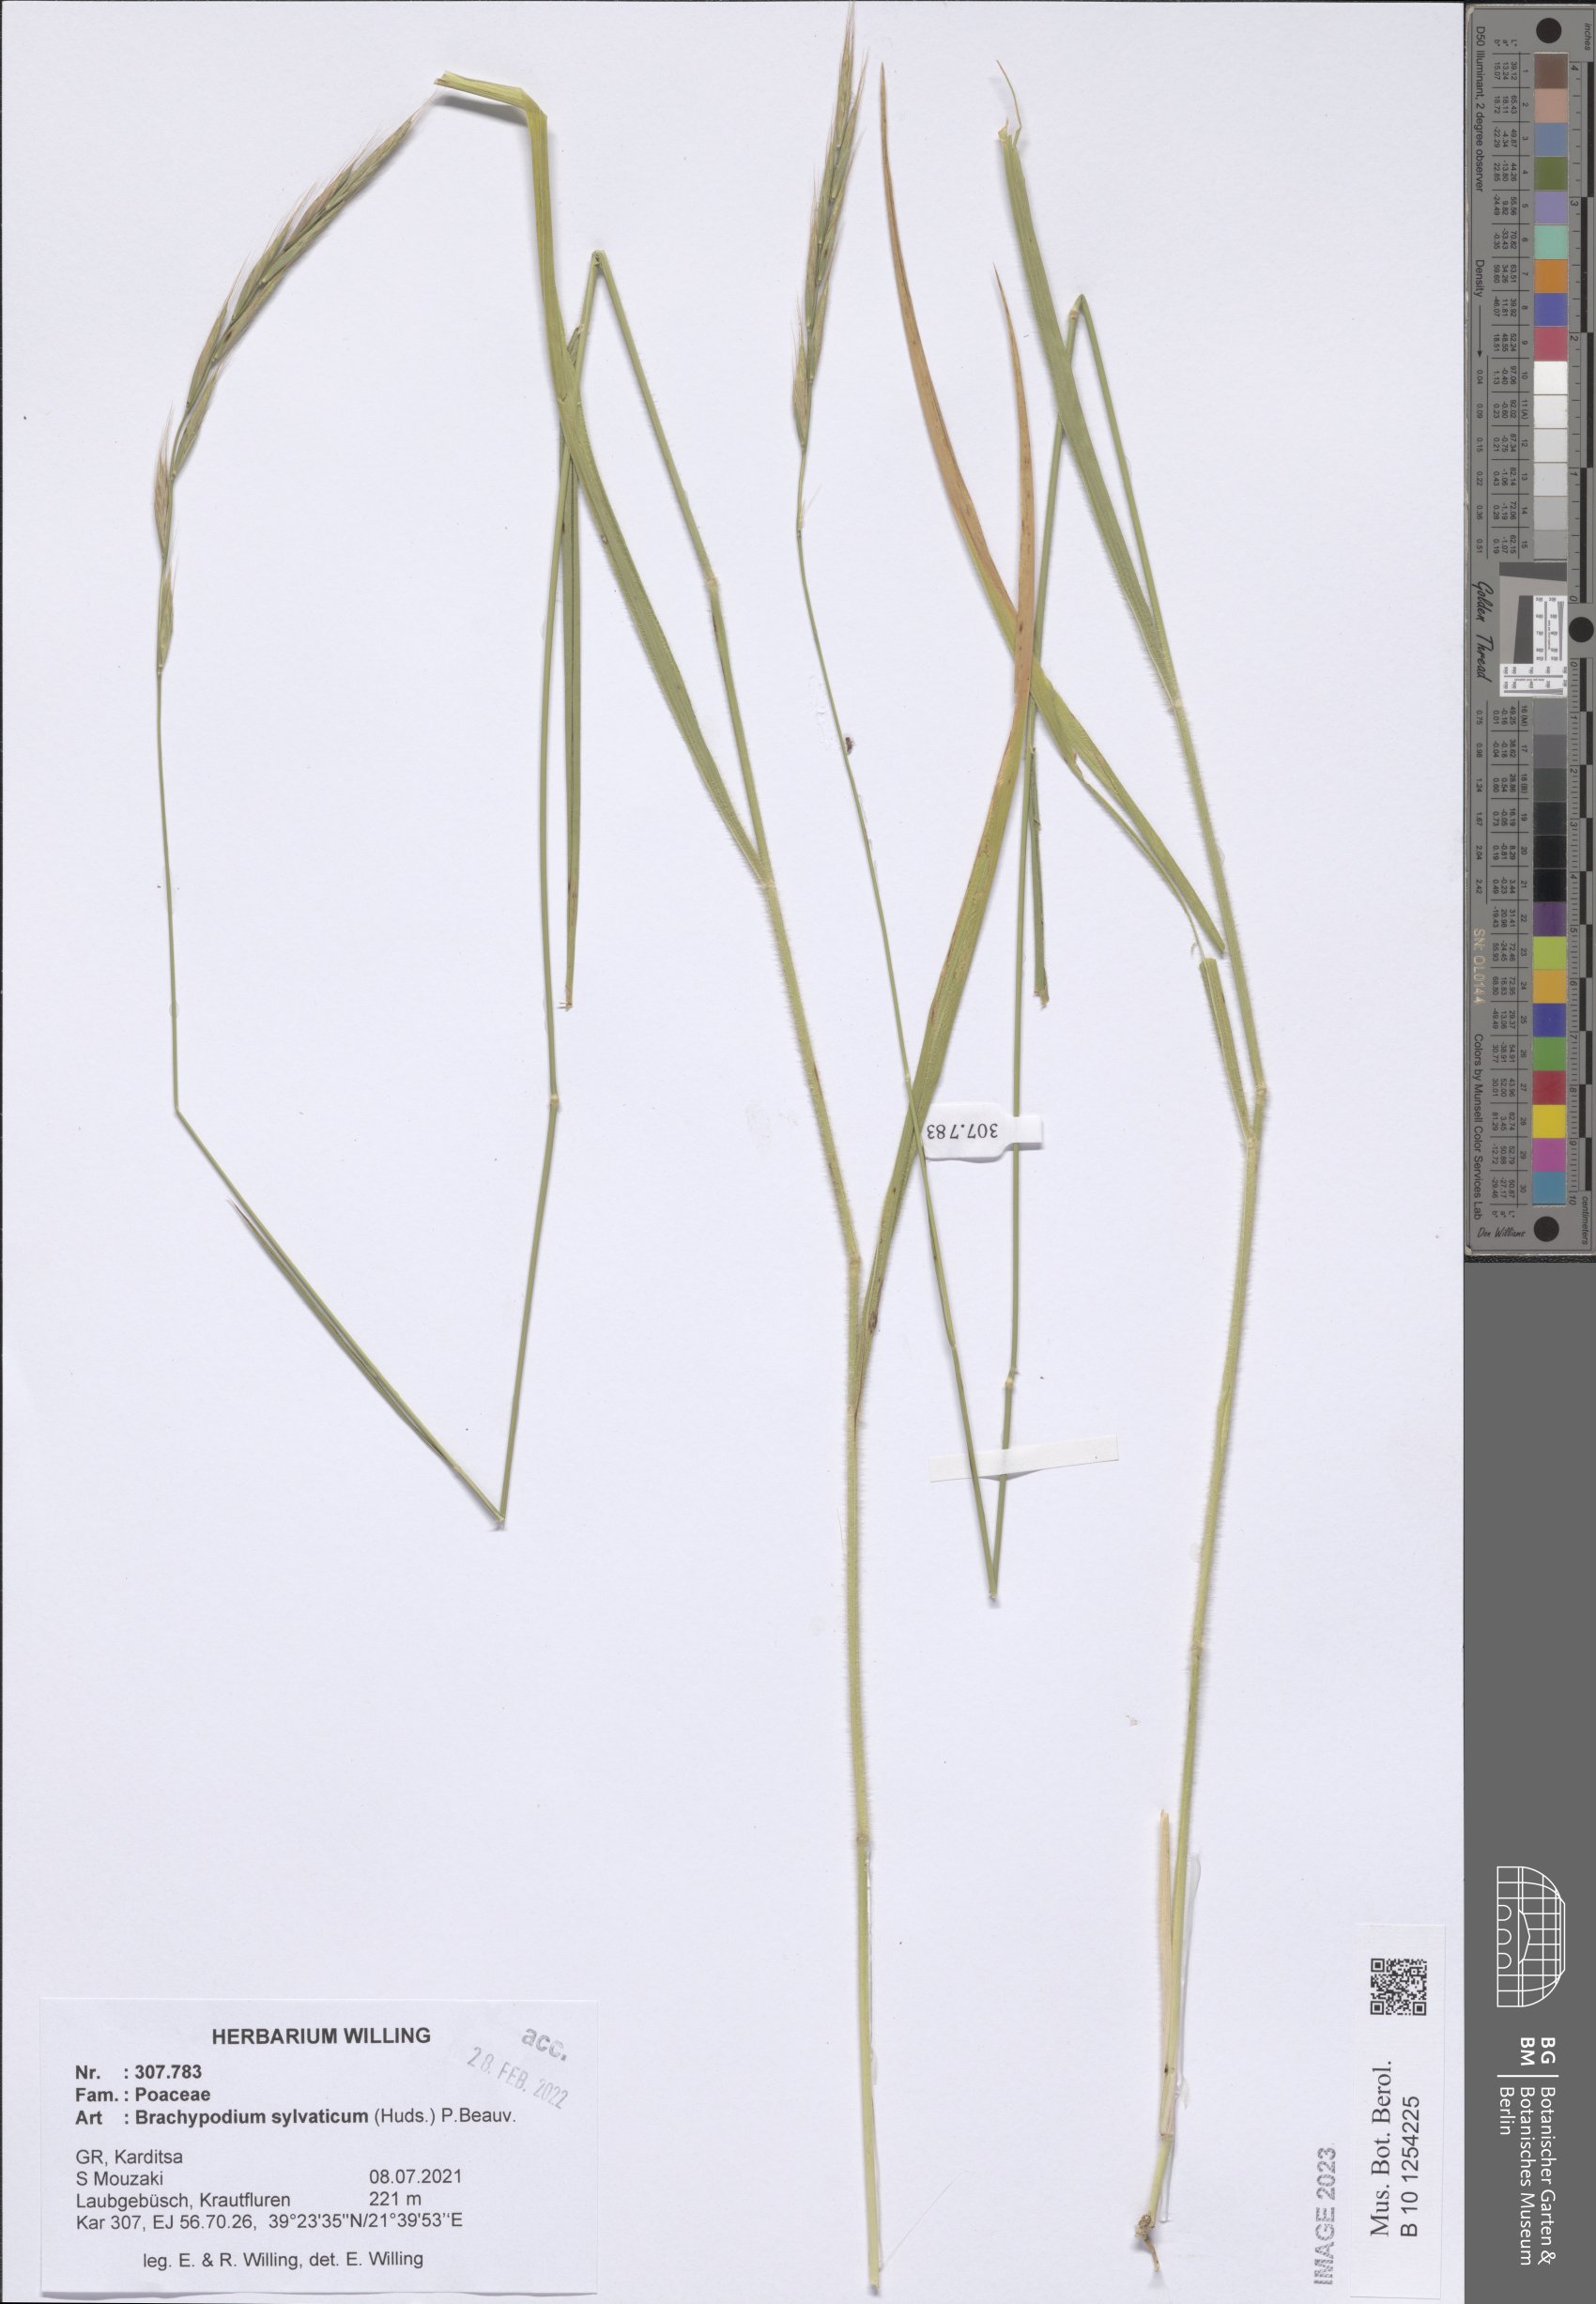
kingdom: Plantae
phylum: Tracheophyta
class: Liliopsida
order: Poales
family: Poaceae
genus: Brachypodium
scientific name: Brachypodium sylvaticum
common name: False-brome
